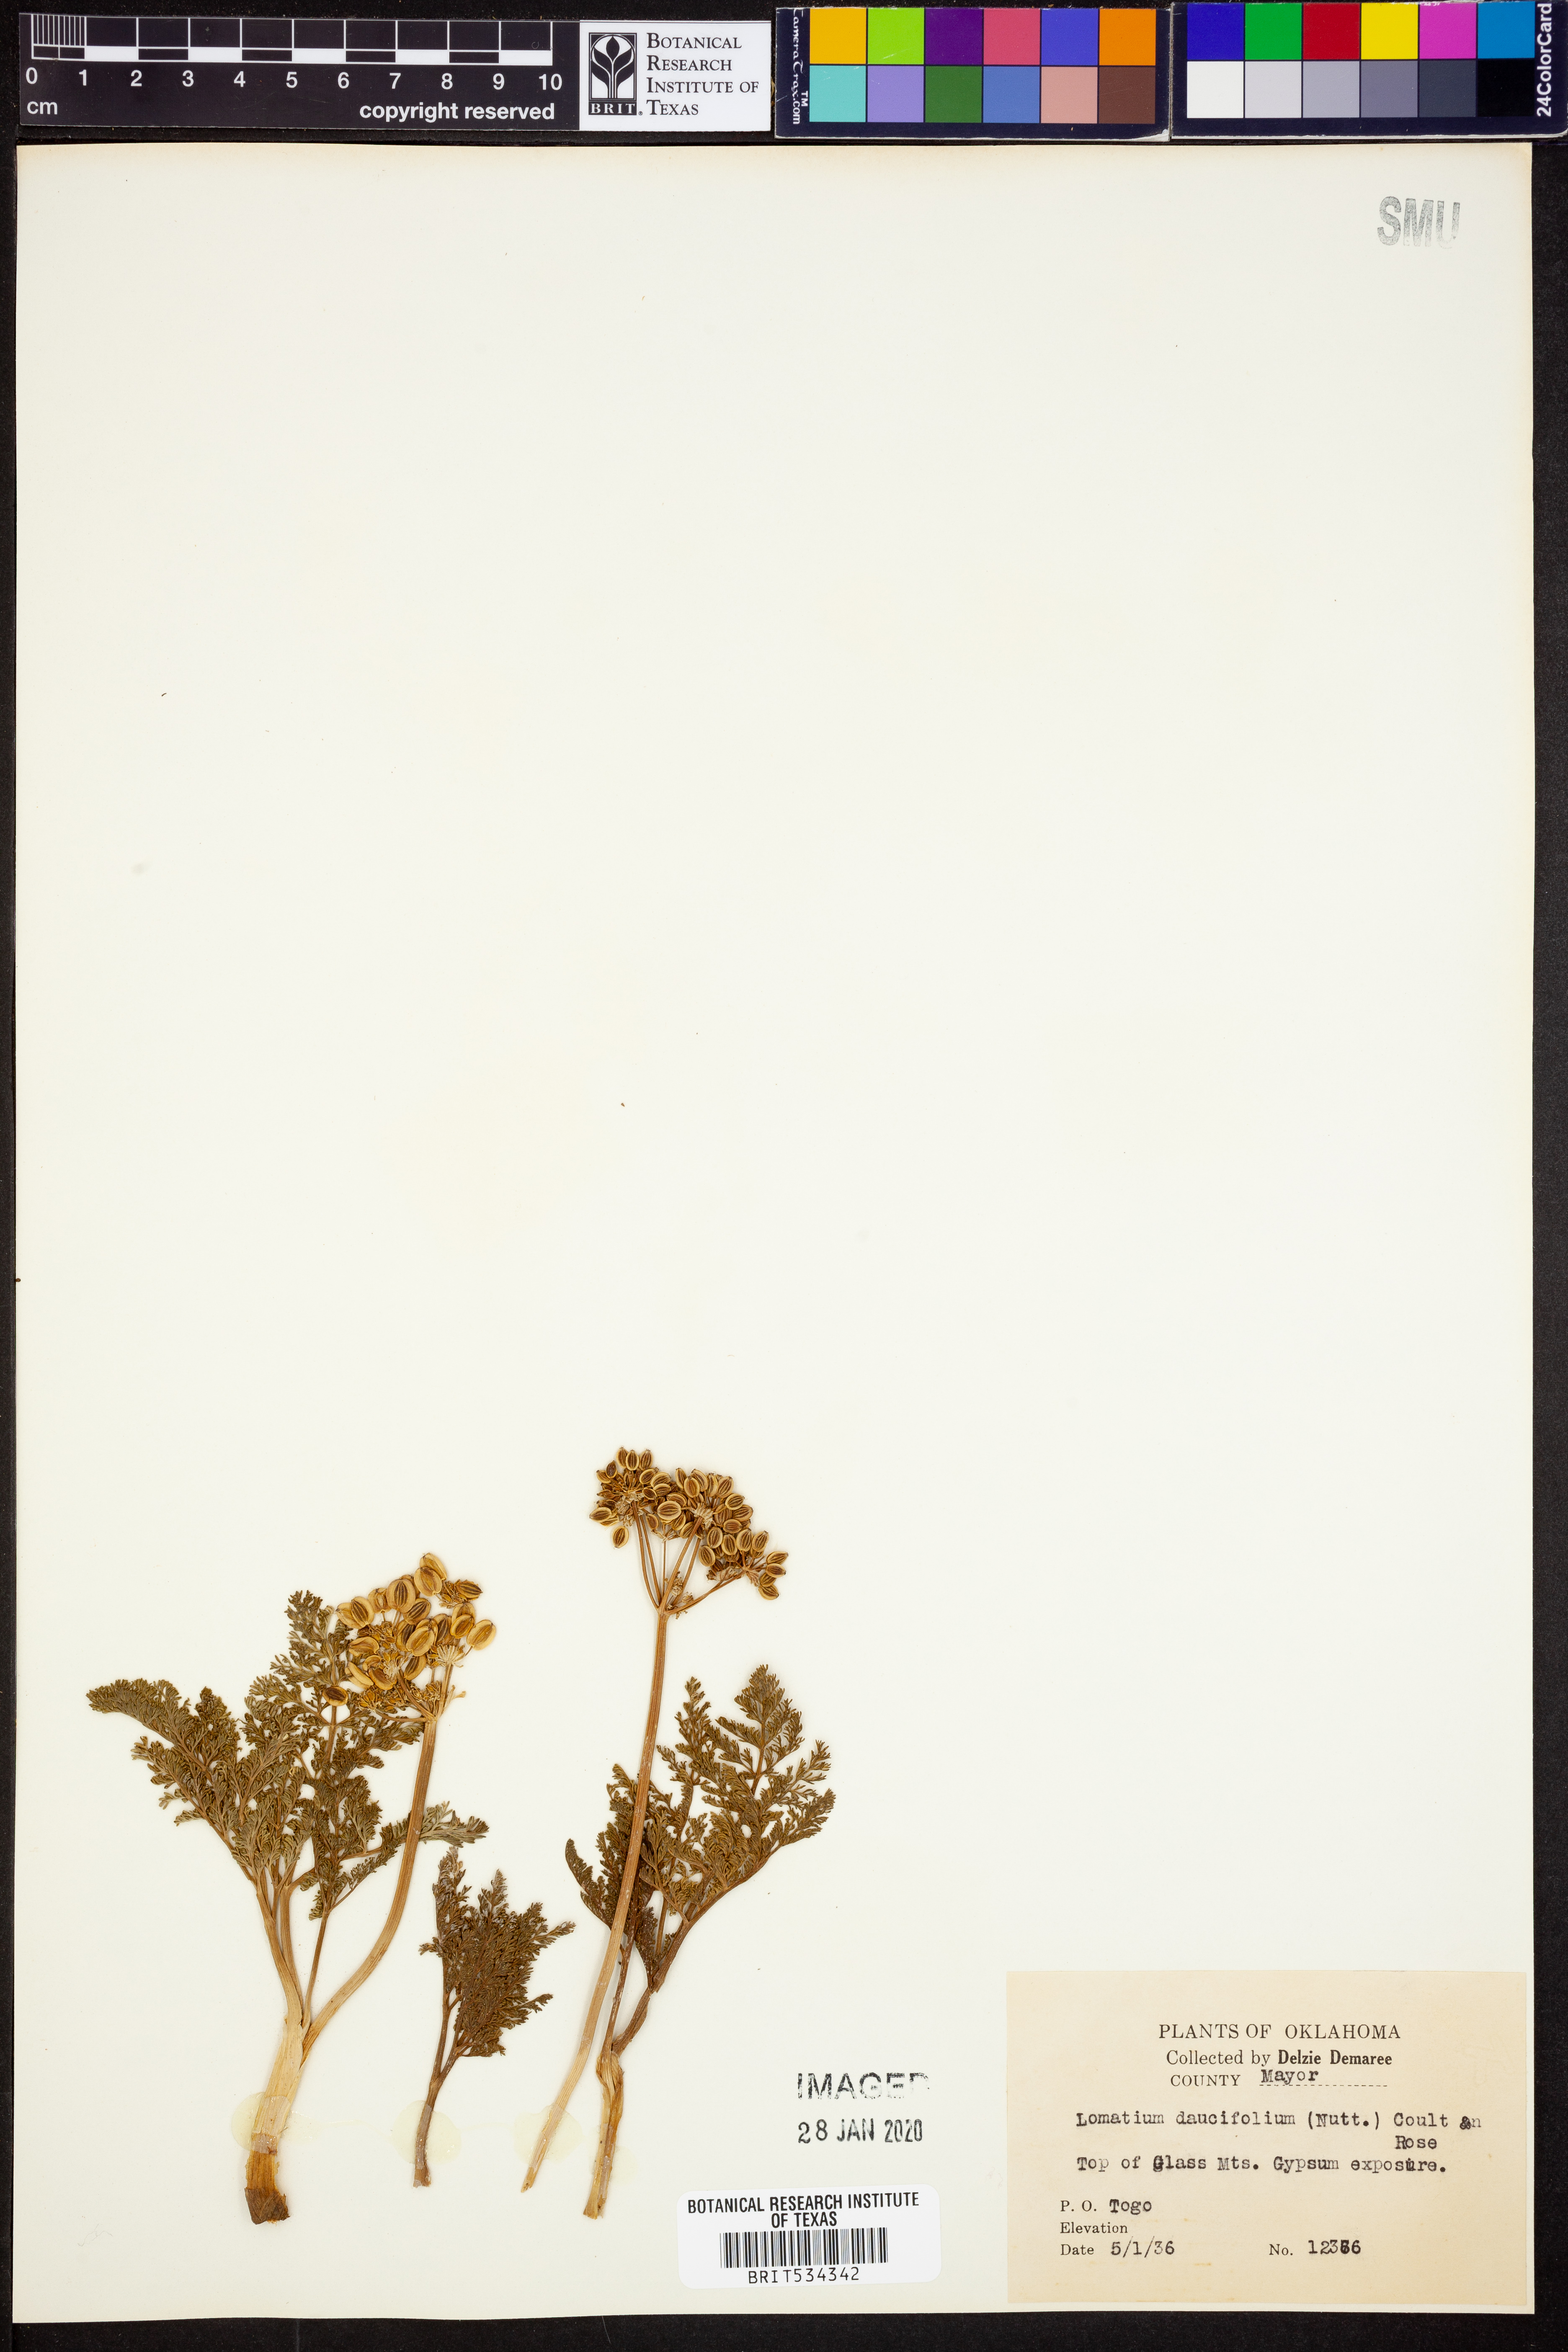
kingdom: Plantae
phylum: Tracheophyta
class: Magnoliopsida
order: Apiales
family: Apiaceae
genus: Lomatium
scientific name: Lomatium foeniculaceum
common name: Desert-parsley
